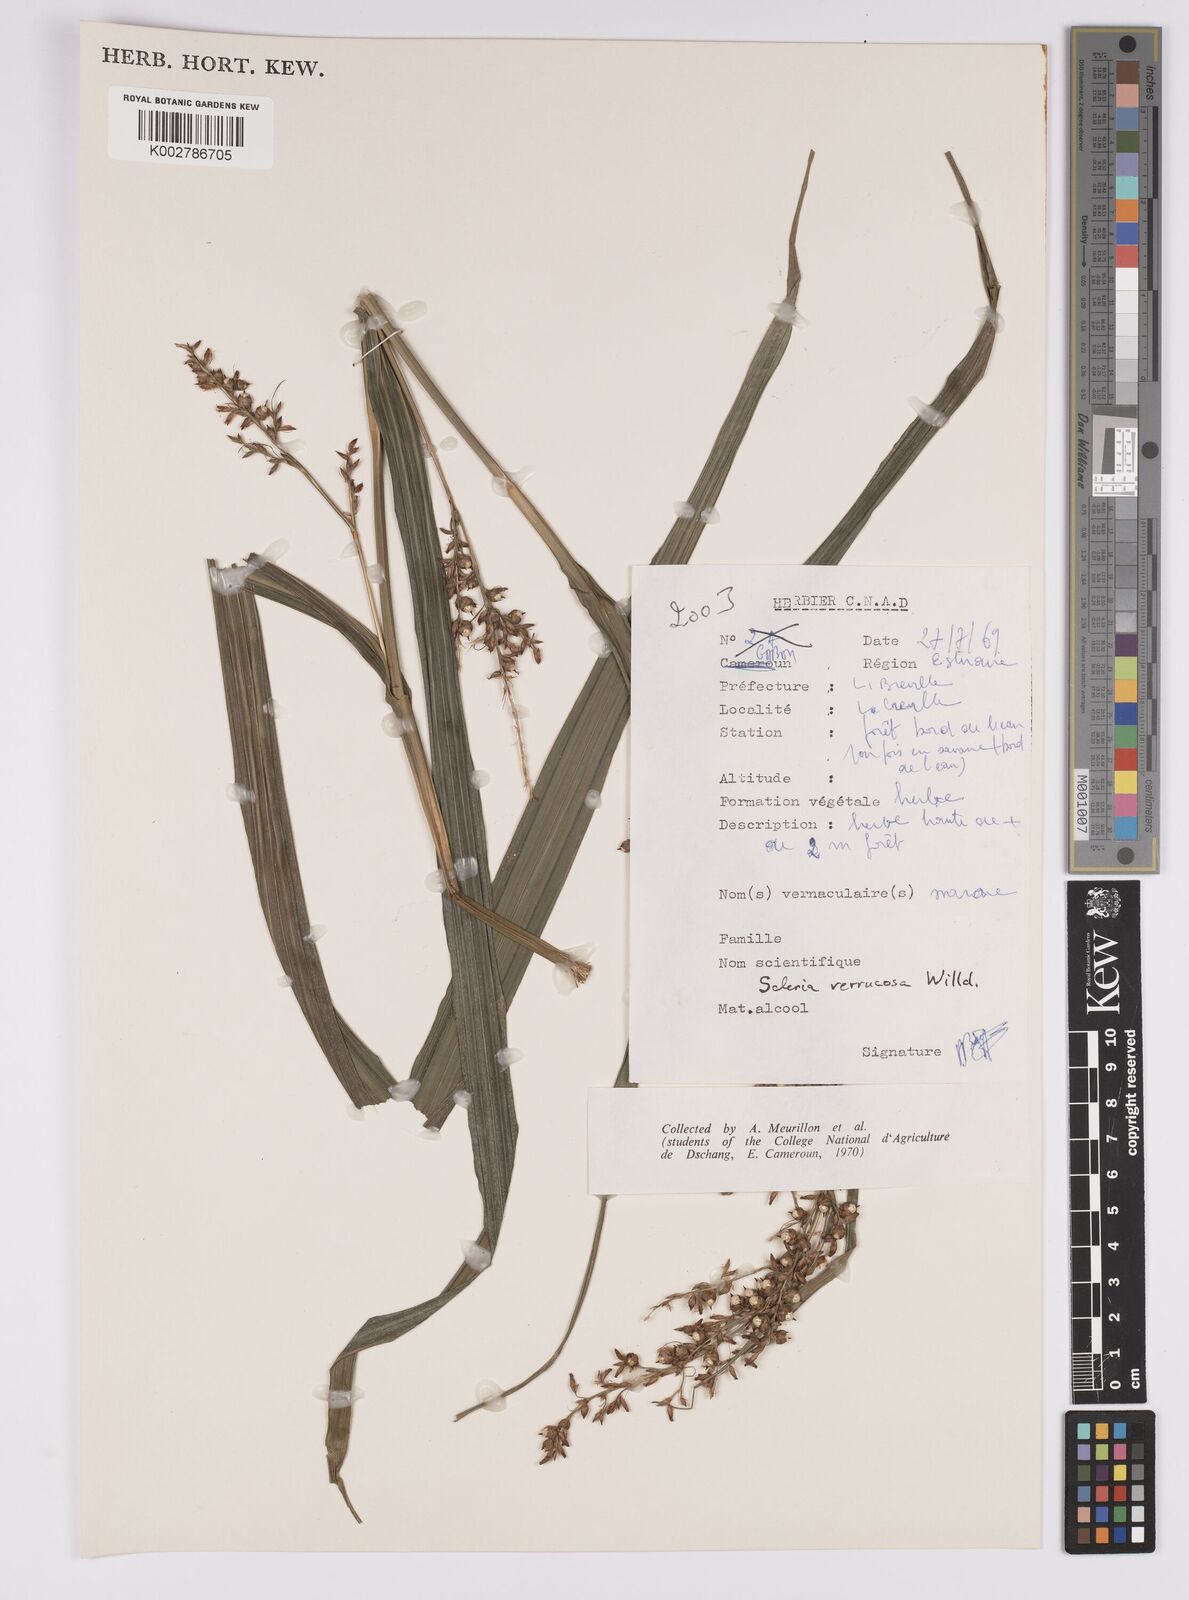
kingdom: Plantae
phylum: Tracheophyta
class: Liliopsida
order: Poales
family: Cyperaceae
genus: Scleria
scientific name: Scleria verrucosa
